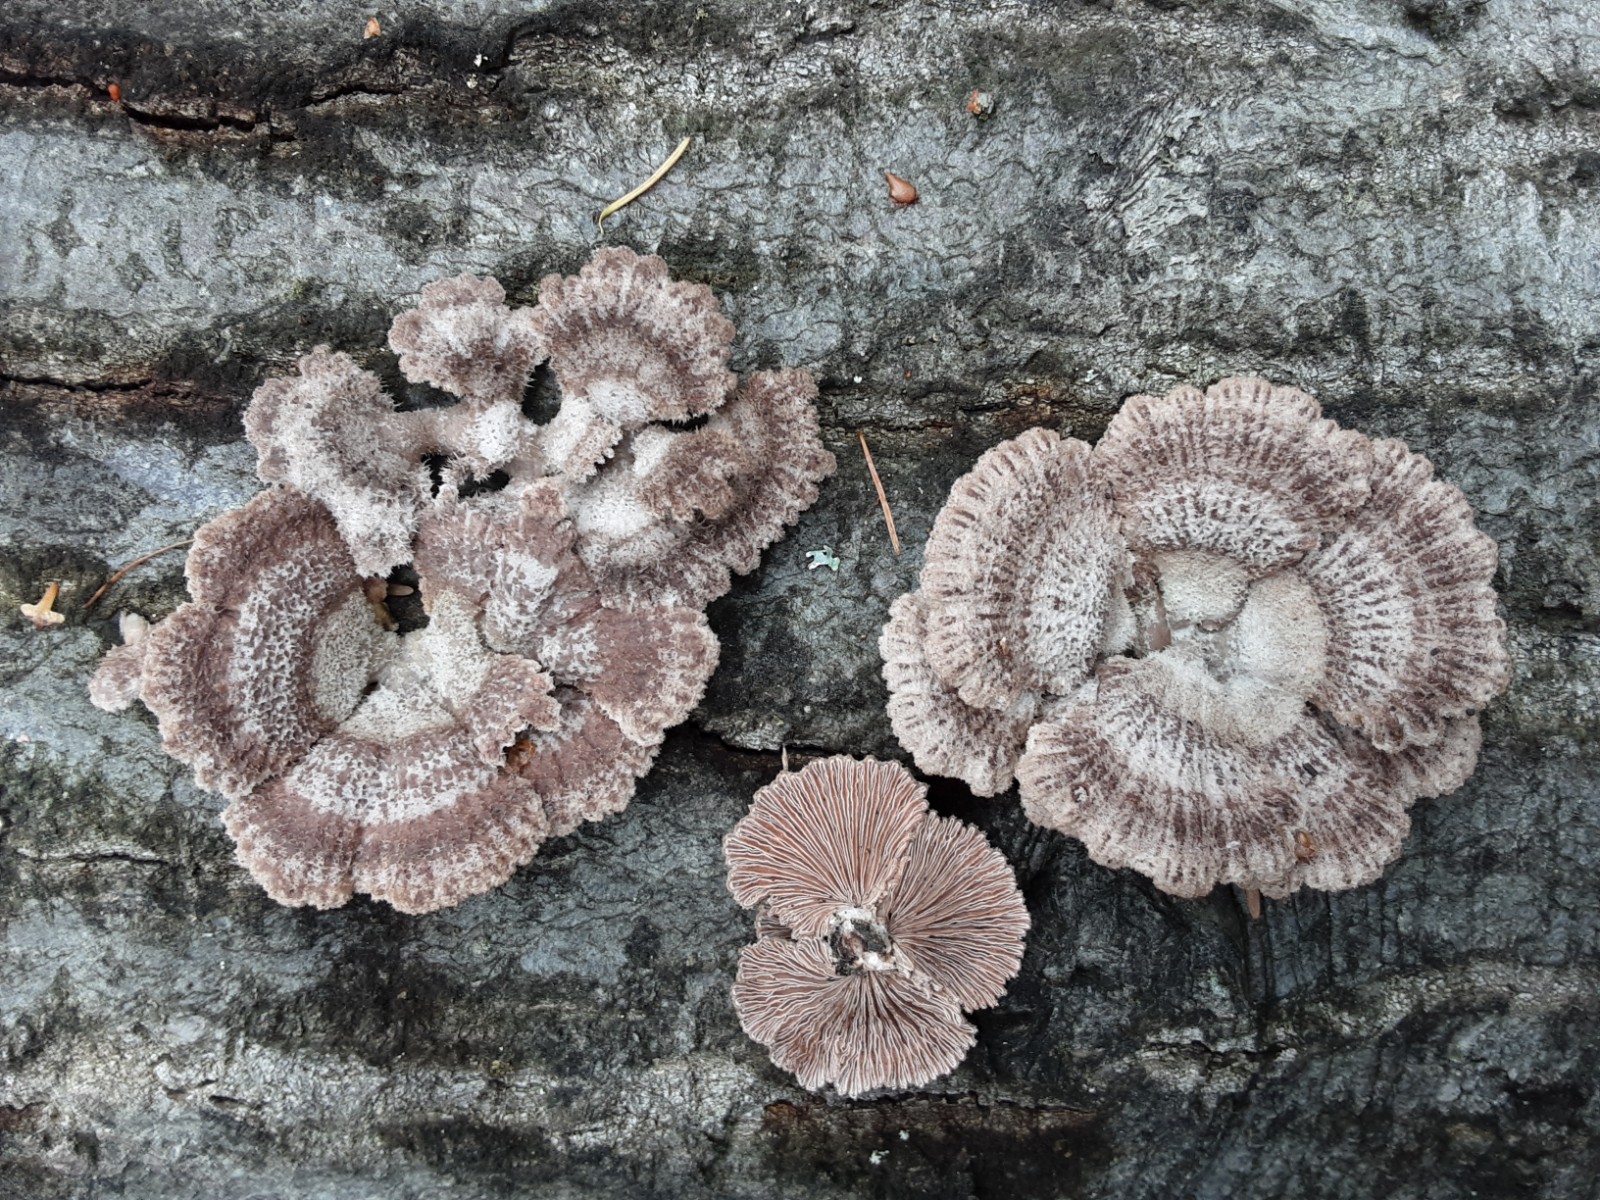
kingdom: Fungi
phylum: Basidiomycota
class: Agaricomycetes
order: Agaricales
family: Schizophyllaceae
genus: Schizophyllum
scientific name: Schizophyllum commune
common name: kløvblad
